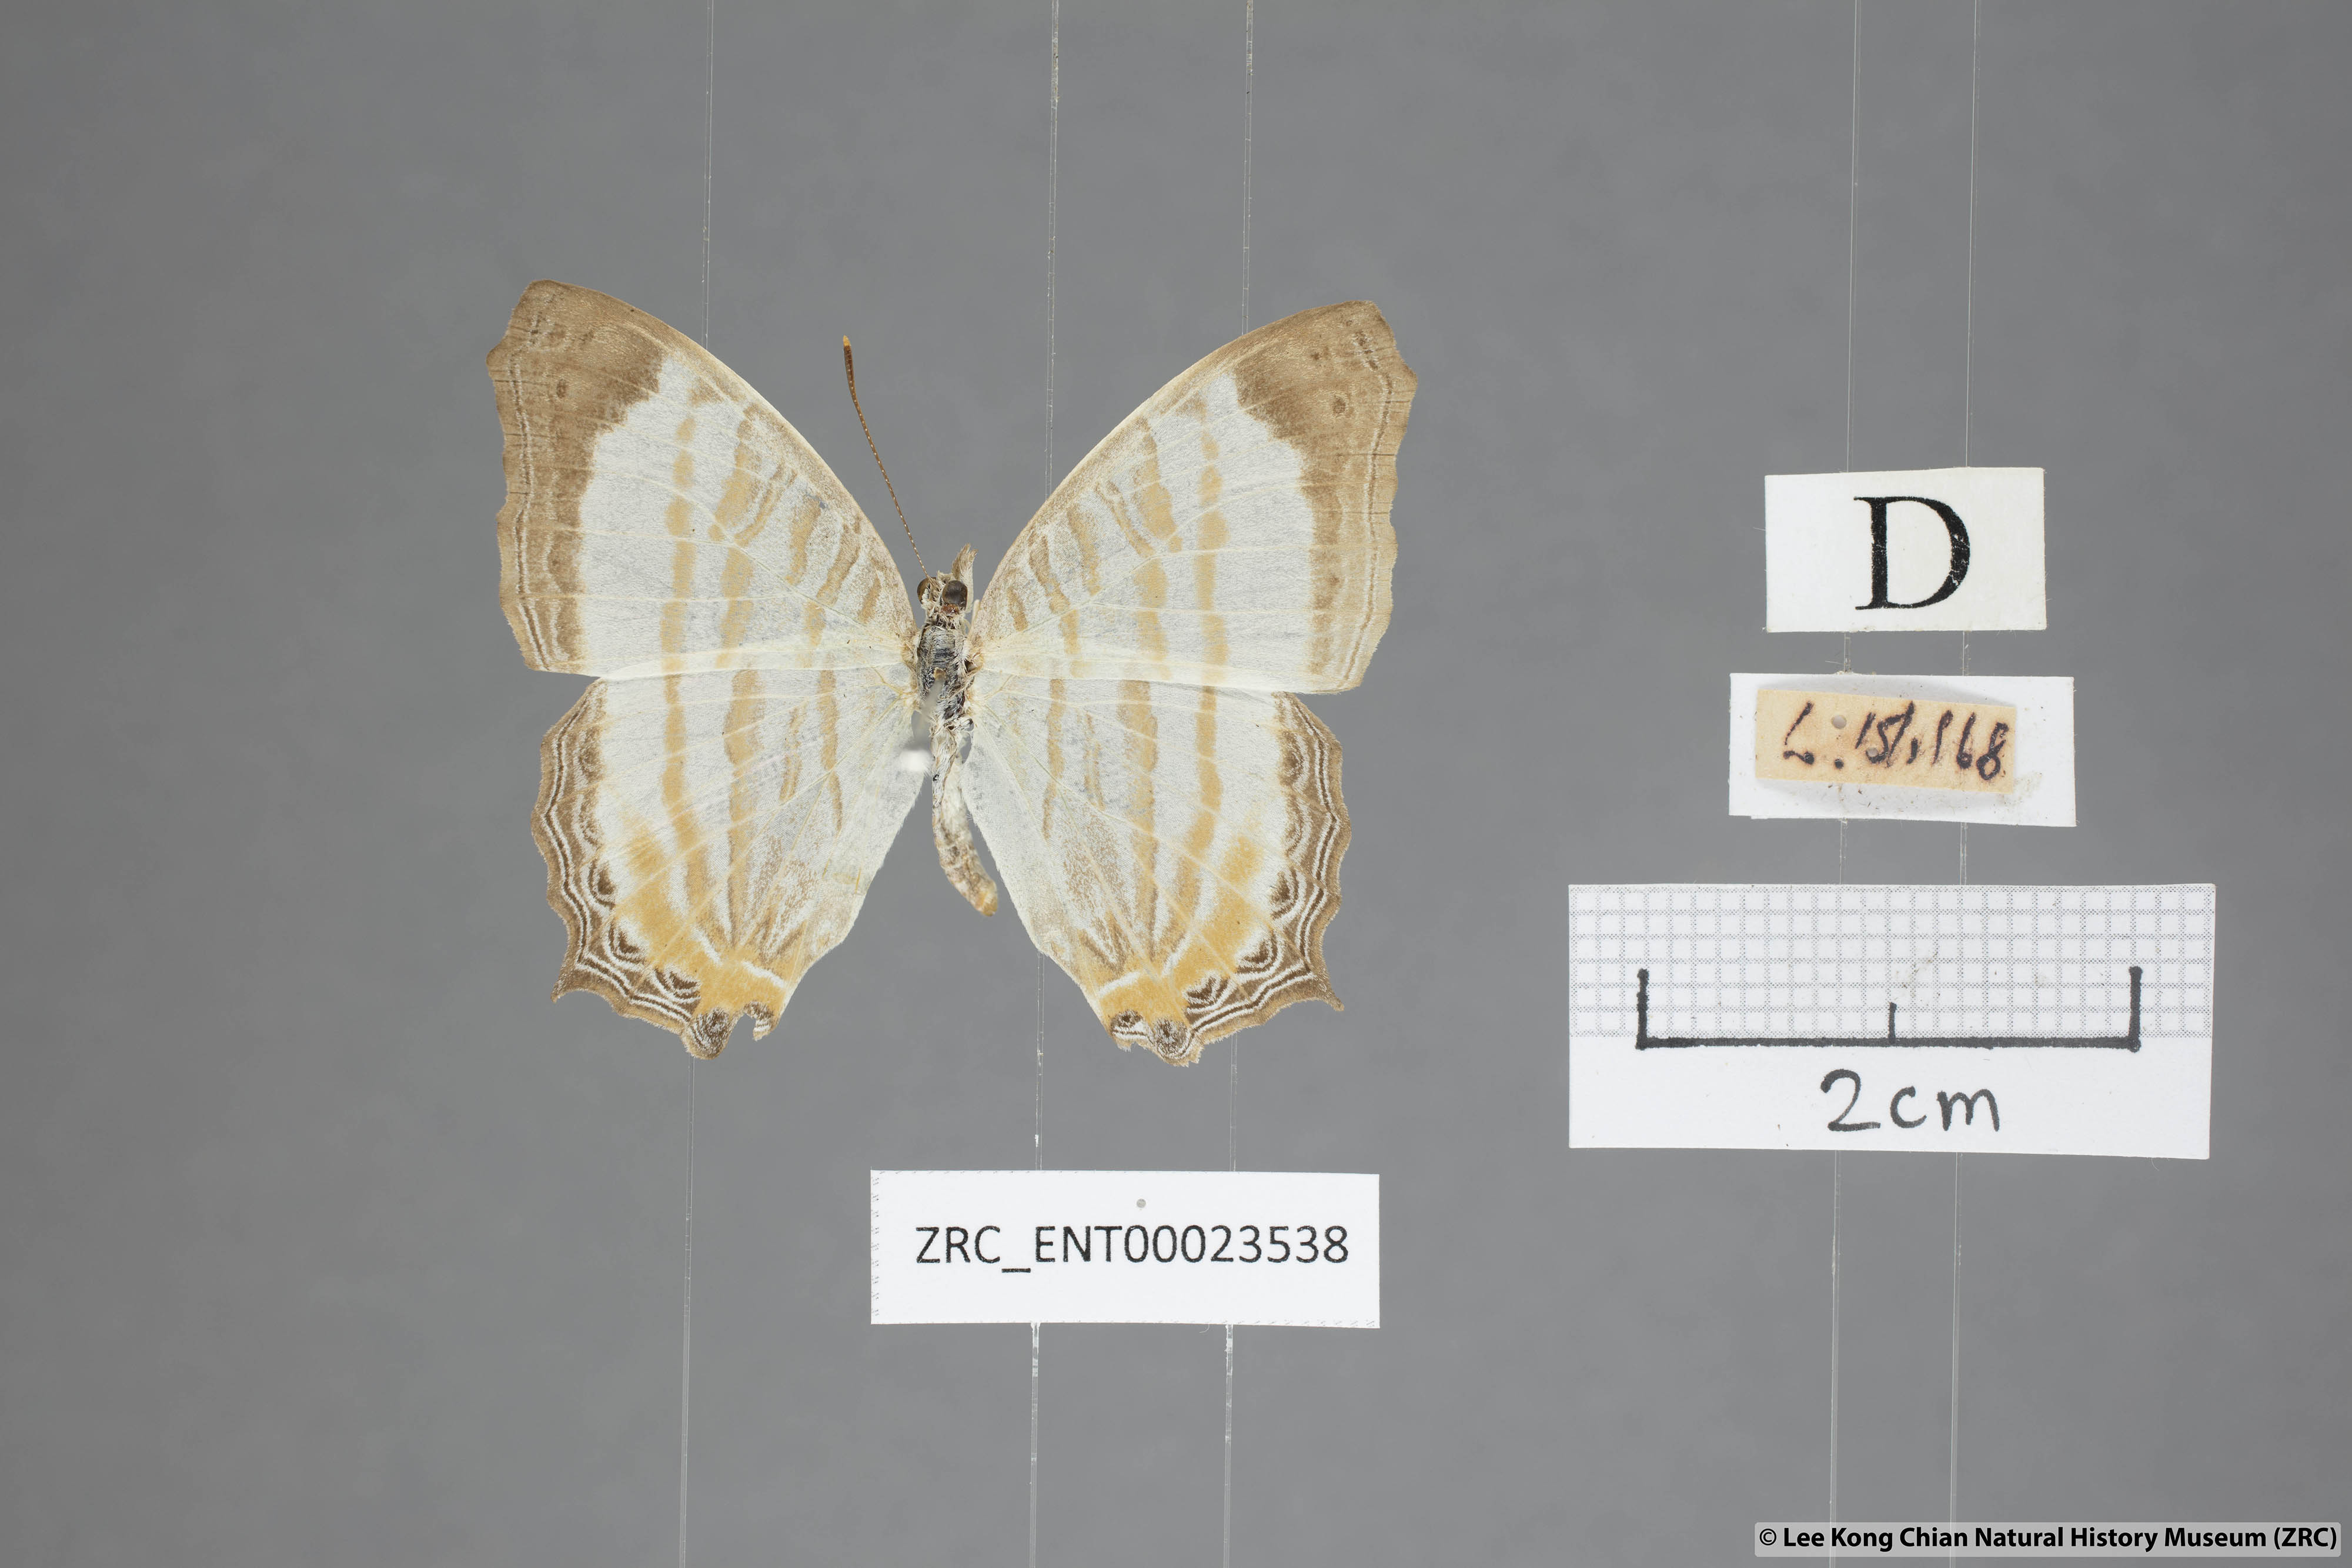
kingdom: Animalia
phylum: Arthropoda
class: Insecta
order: Lepidoptera
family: Nymphalidae
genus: Cyrestis
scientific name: Cyrestis themire
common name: Little mapwing
